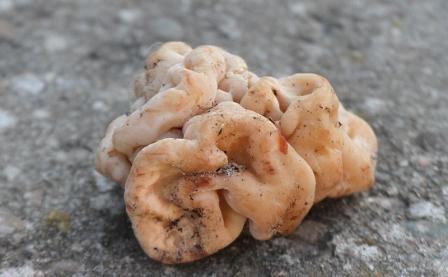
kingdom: Fungi
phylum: Ascomycota
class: Pezizomycetes
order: Pezizales
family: Discinaceae
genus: Gyromitra
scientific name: Gyromitra esculenta
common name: ægte stenmorkel
